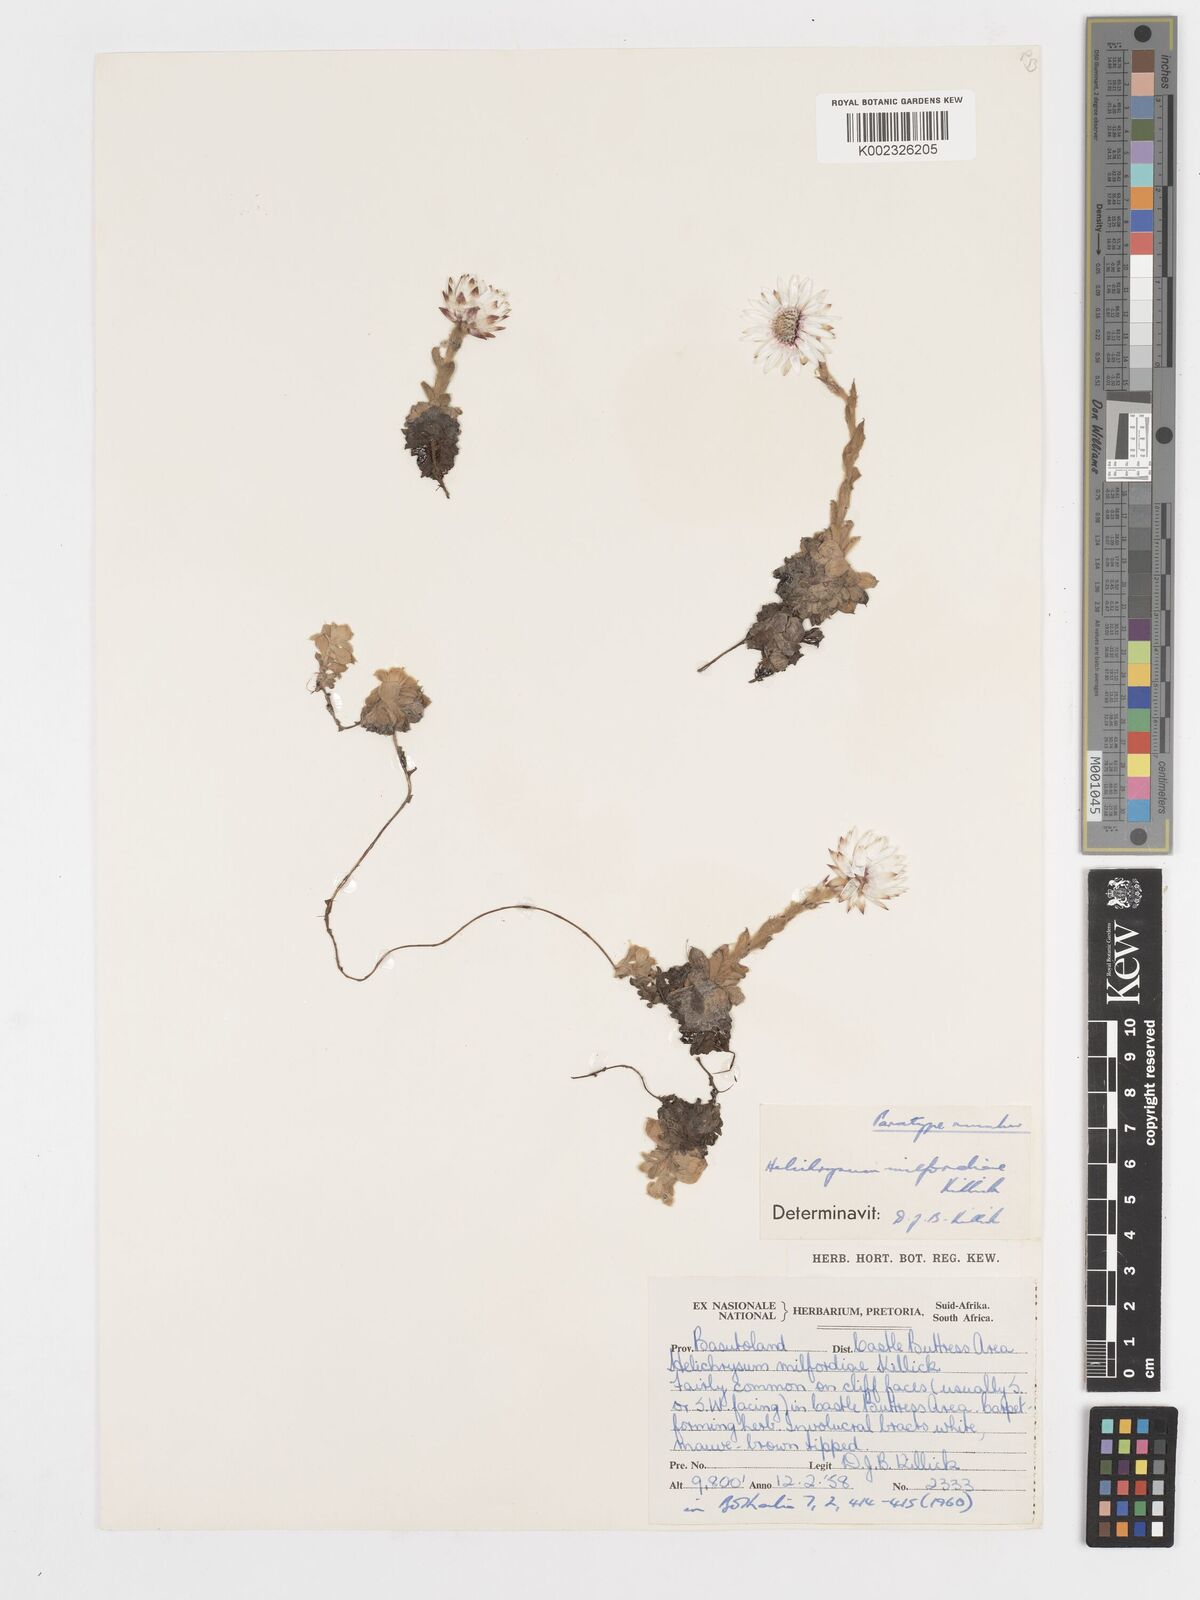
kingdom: Plantae
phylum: Tracheophyta
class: Magnoliopsida
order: Asterales
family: Asteraceae
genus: Helichrysum
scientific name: Helichrysum milfordiae
